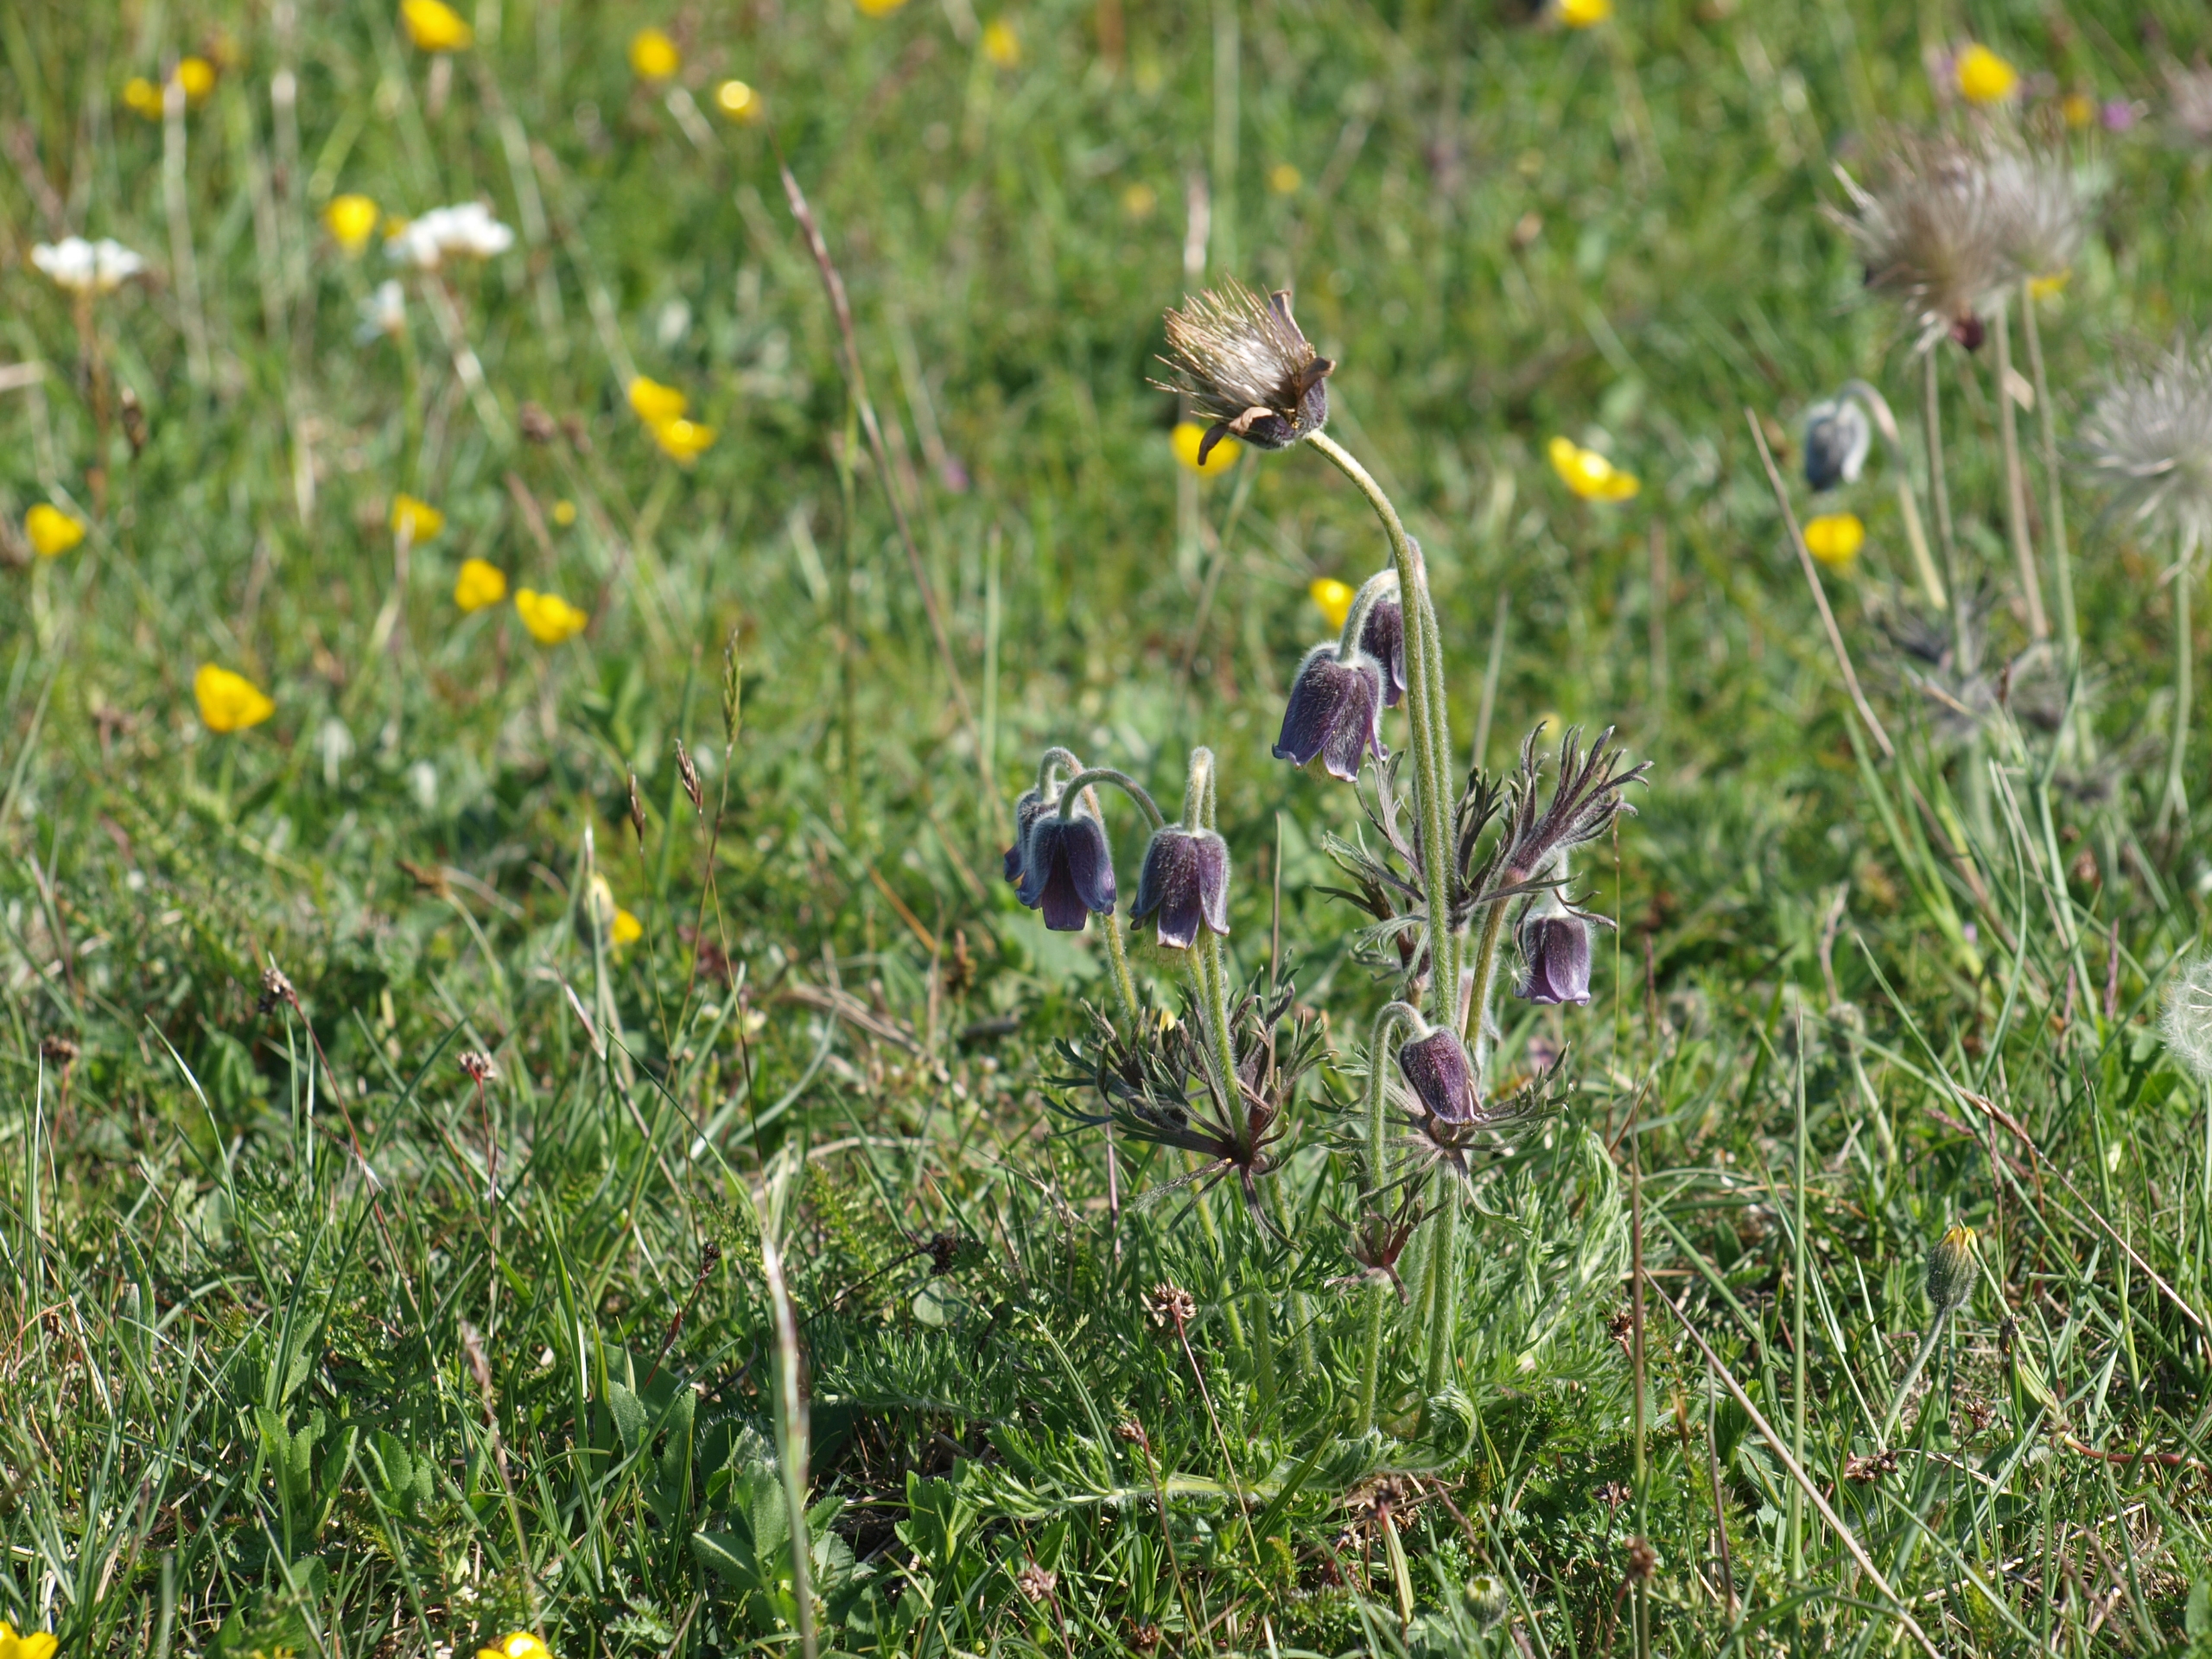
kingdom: Plantae
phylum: Tracheophyta
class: Magnoliopsida
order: Ranunculales
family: Ranunculaceae
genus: Pulsatilla
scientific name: Pulsatilla pratensis
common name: Nikkende kobjælde
